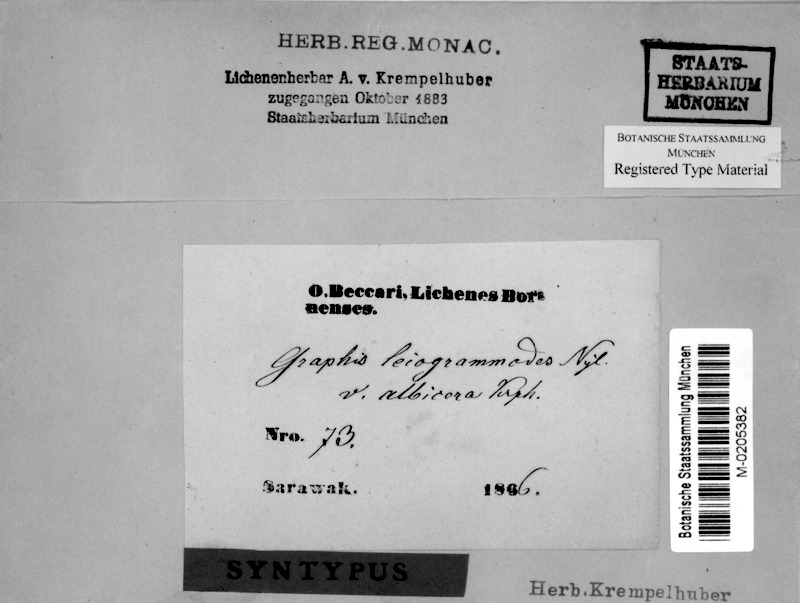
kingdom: Fungi
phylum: Ascomycota
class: Lecanoromycetes
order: Ostropales
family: Graphidaceae
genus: Phaeographis
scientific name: Phaeographis leiogrammodes
